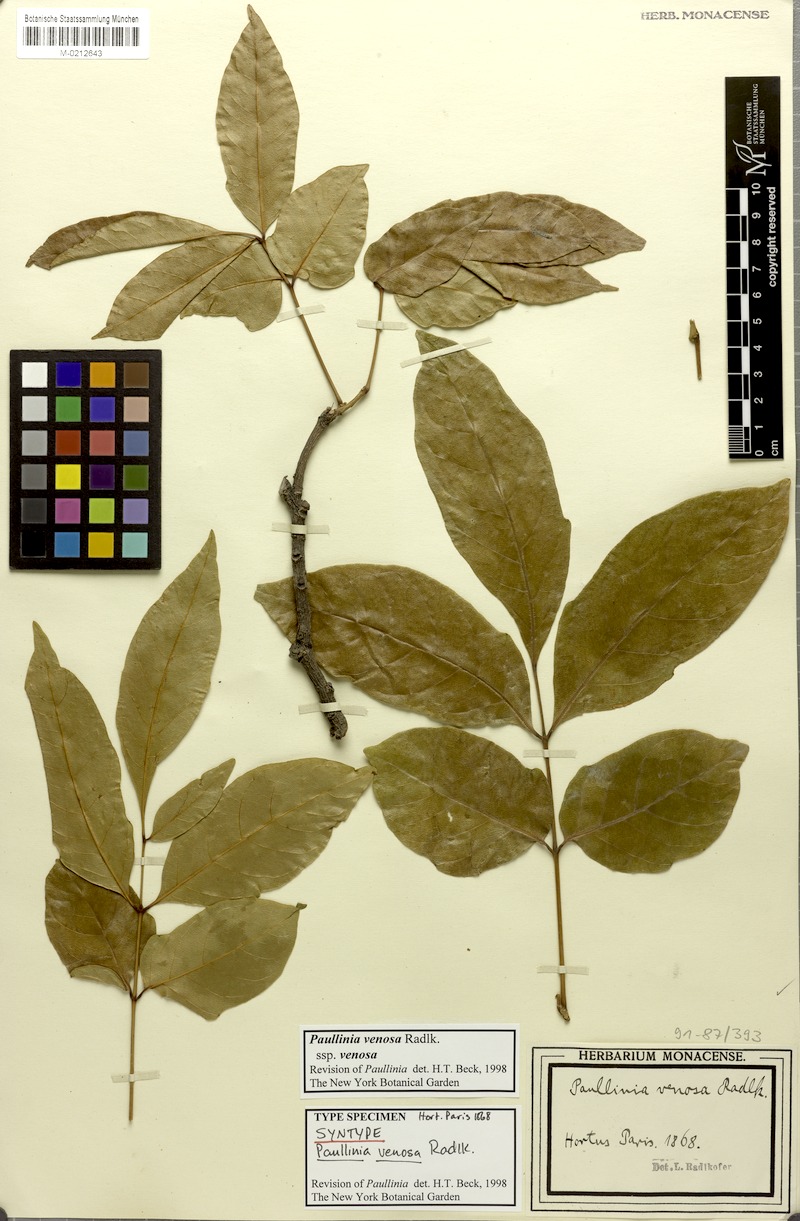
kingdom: Plantae
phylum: Tracheophyta
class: Magnoliopsida
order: Sapindales
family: Sapindaceae
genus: Paullinia
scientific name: Paullinia venosa
